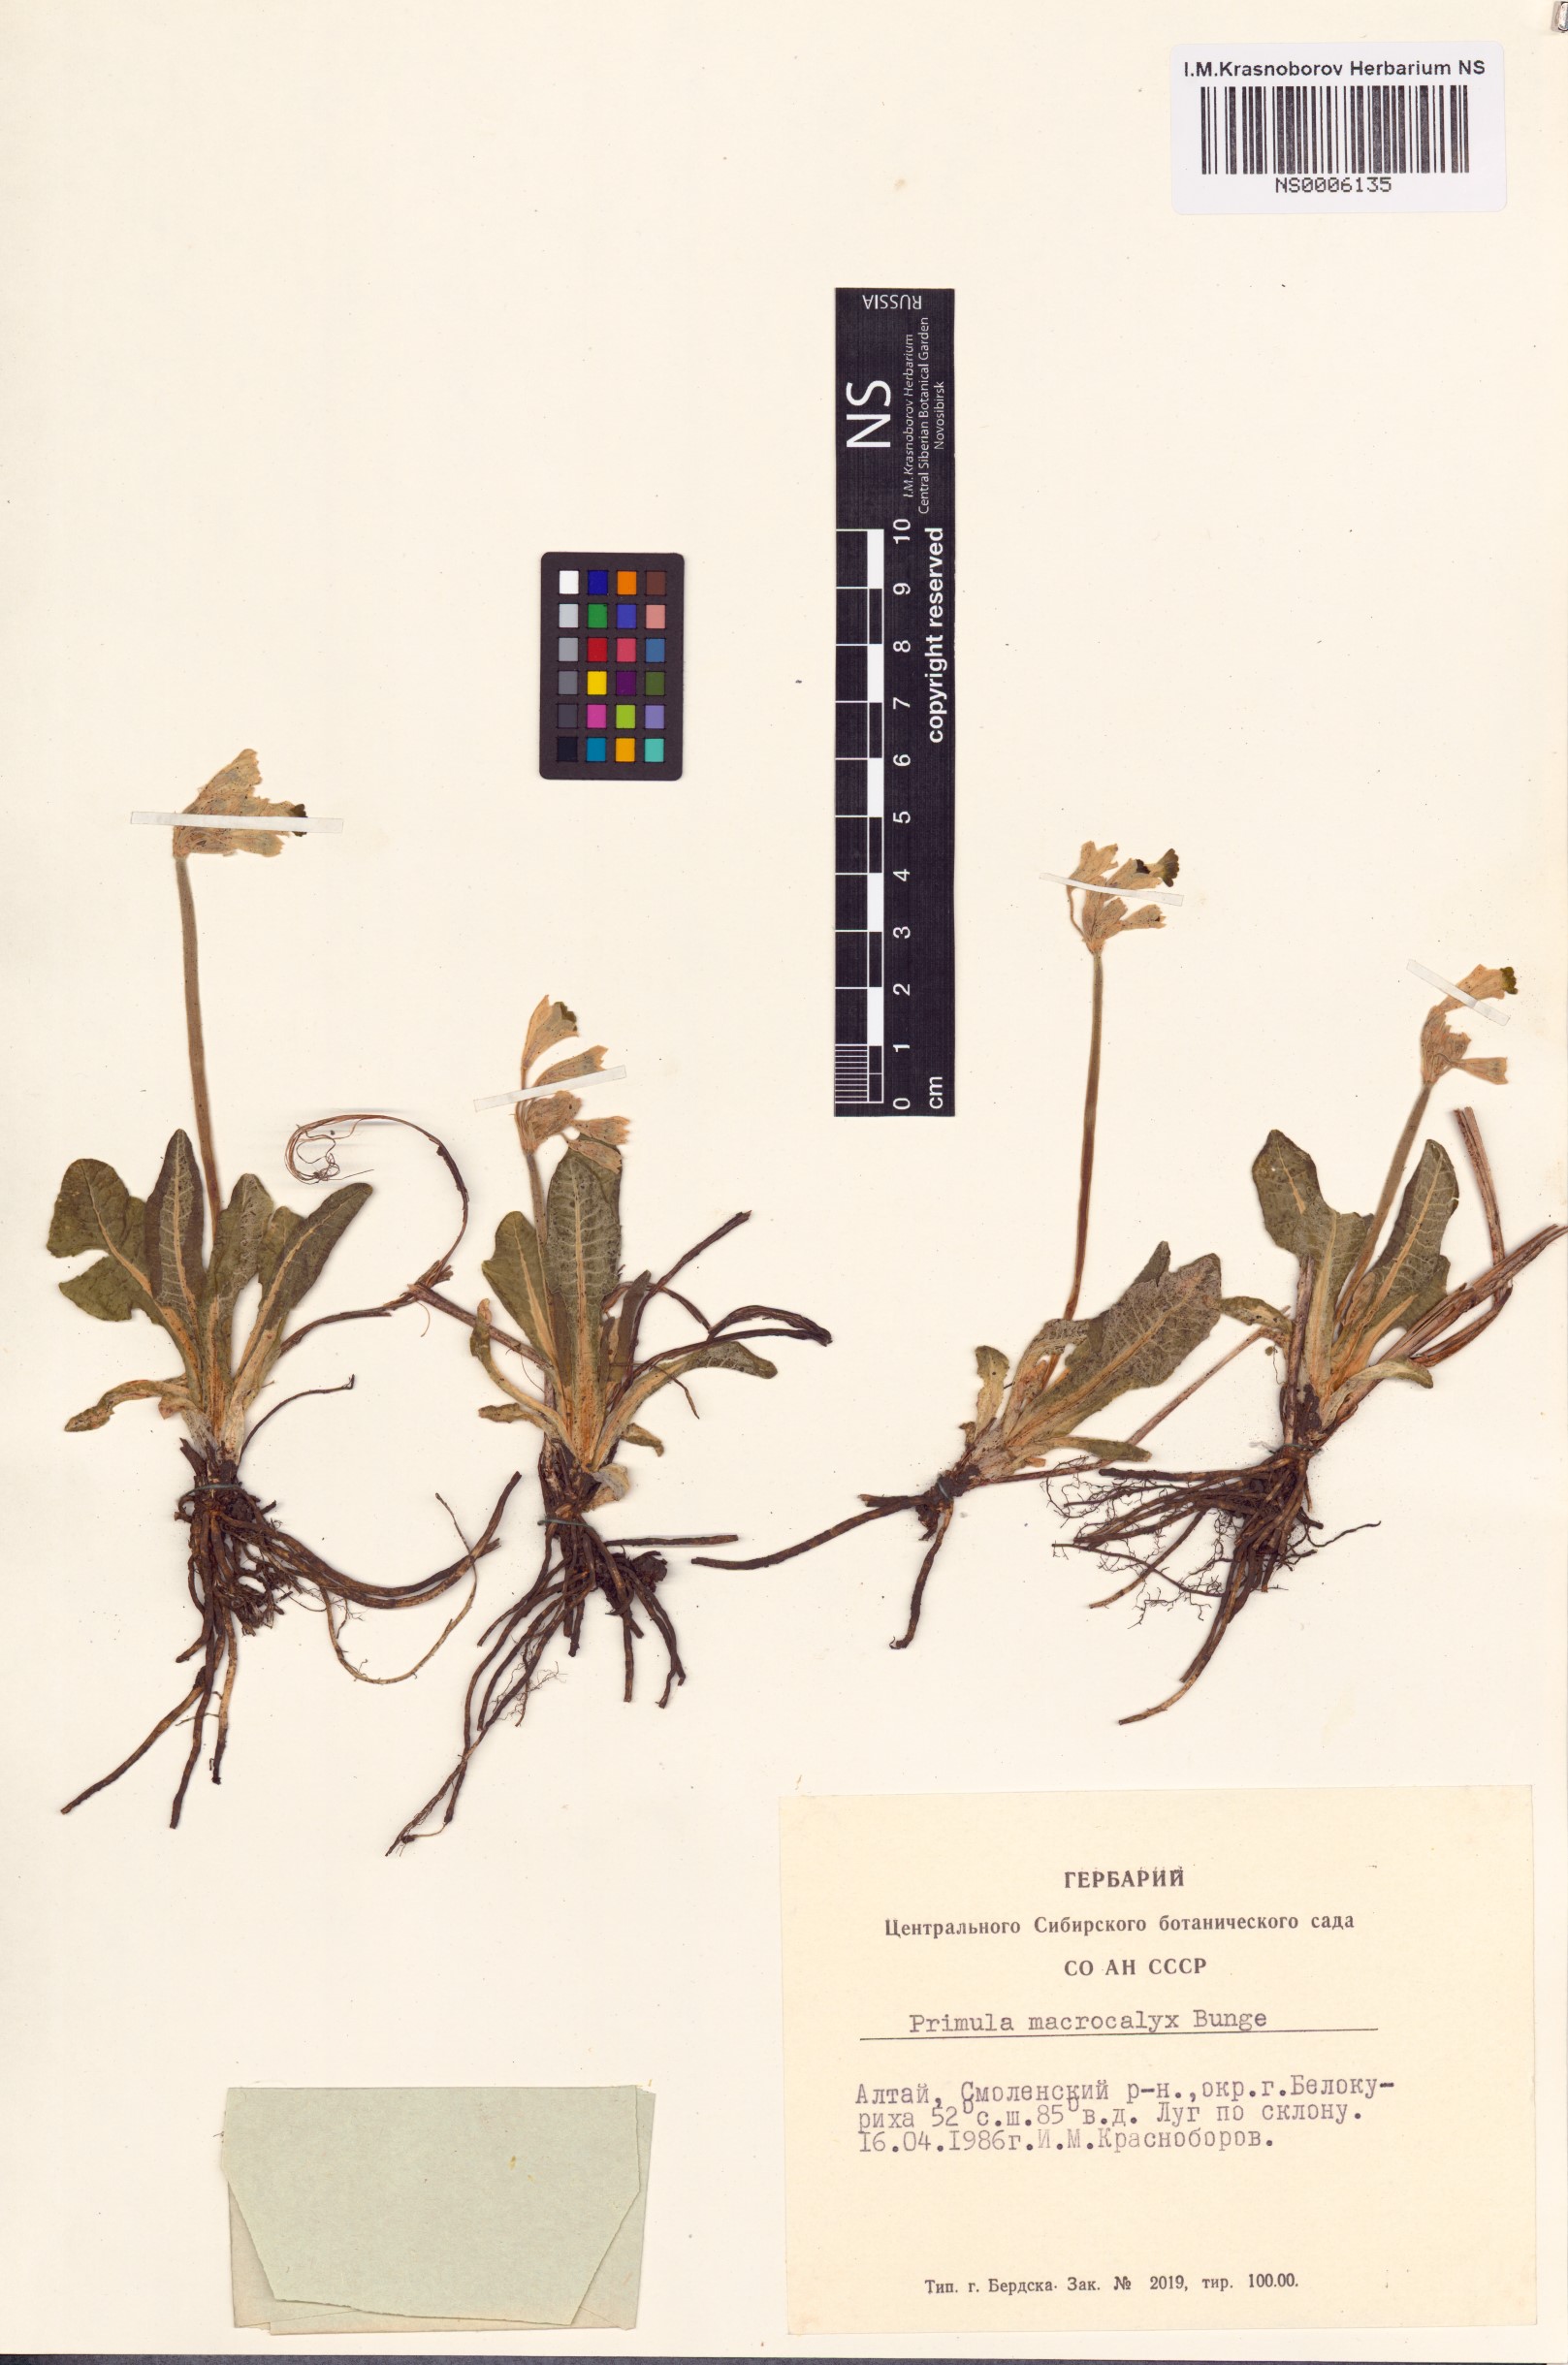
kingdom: Plantae
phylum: Tracheophyta
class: Magnoliopsida
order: Ericales
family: Primulaceae
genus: Primula
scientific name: Primula veris
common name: Cowslip
